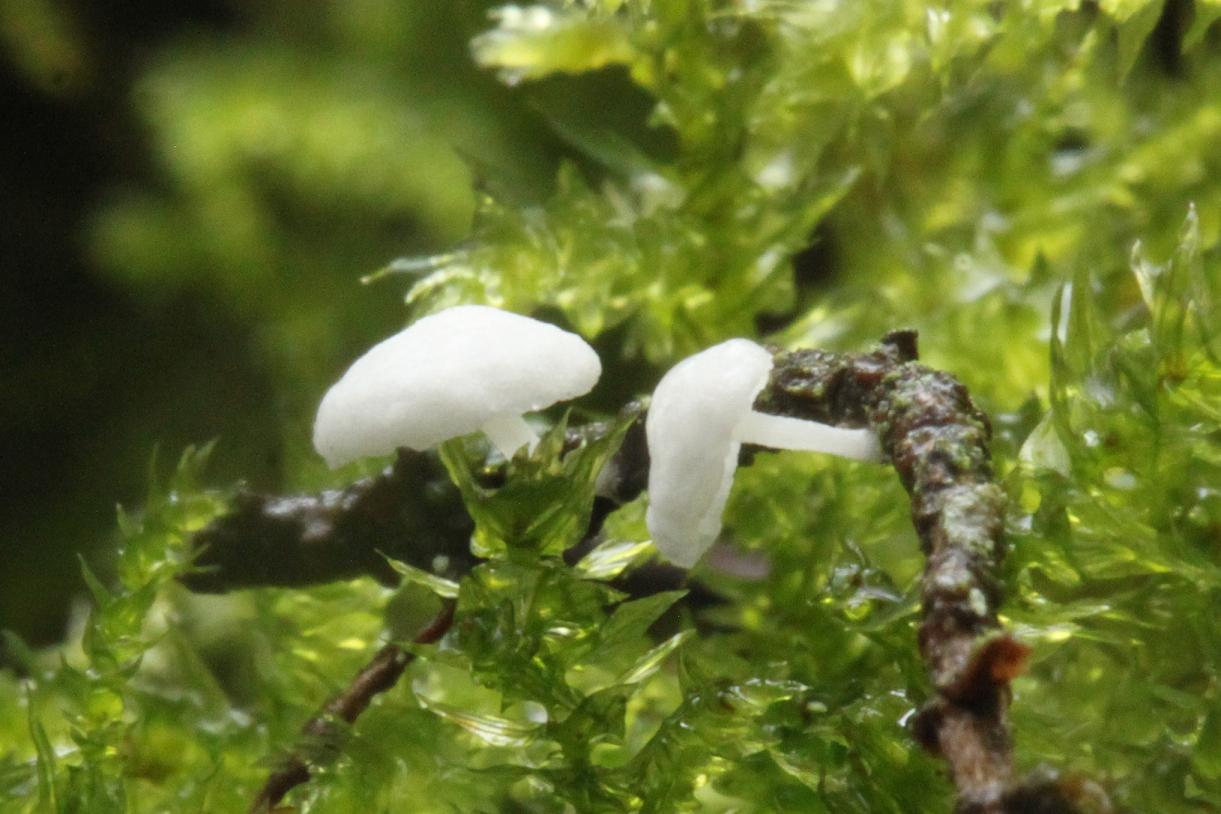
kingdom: Fungi
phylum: Basidiomycota
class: Agaricomycetes
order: Agaricales
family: Mycenaceae
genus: Hemimycena
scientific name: Hemimycena lactea
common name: mælkehvid huesvamp
